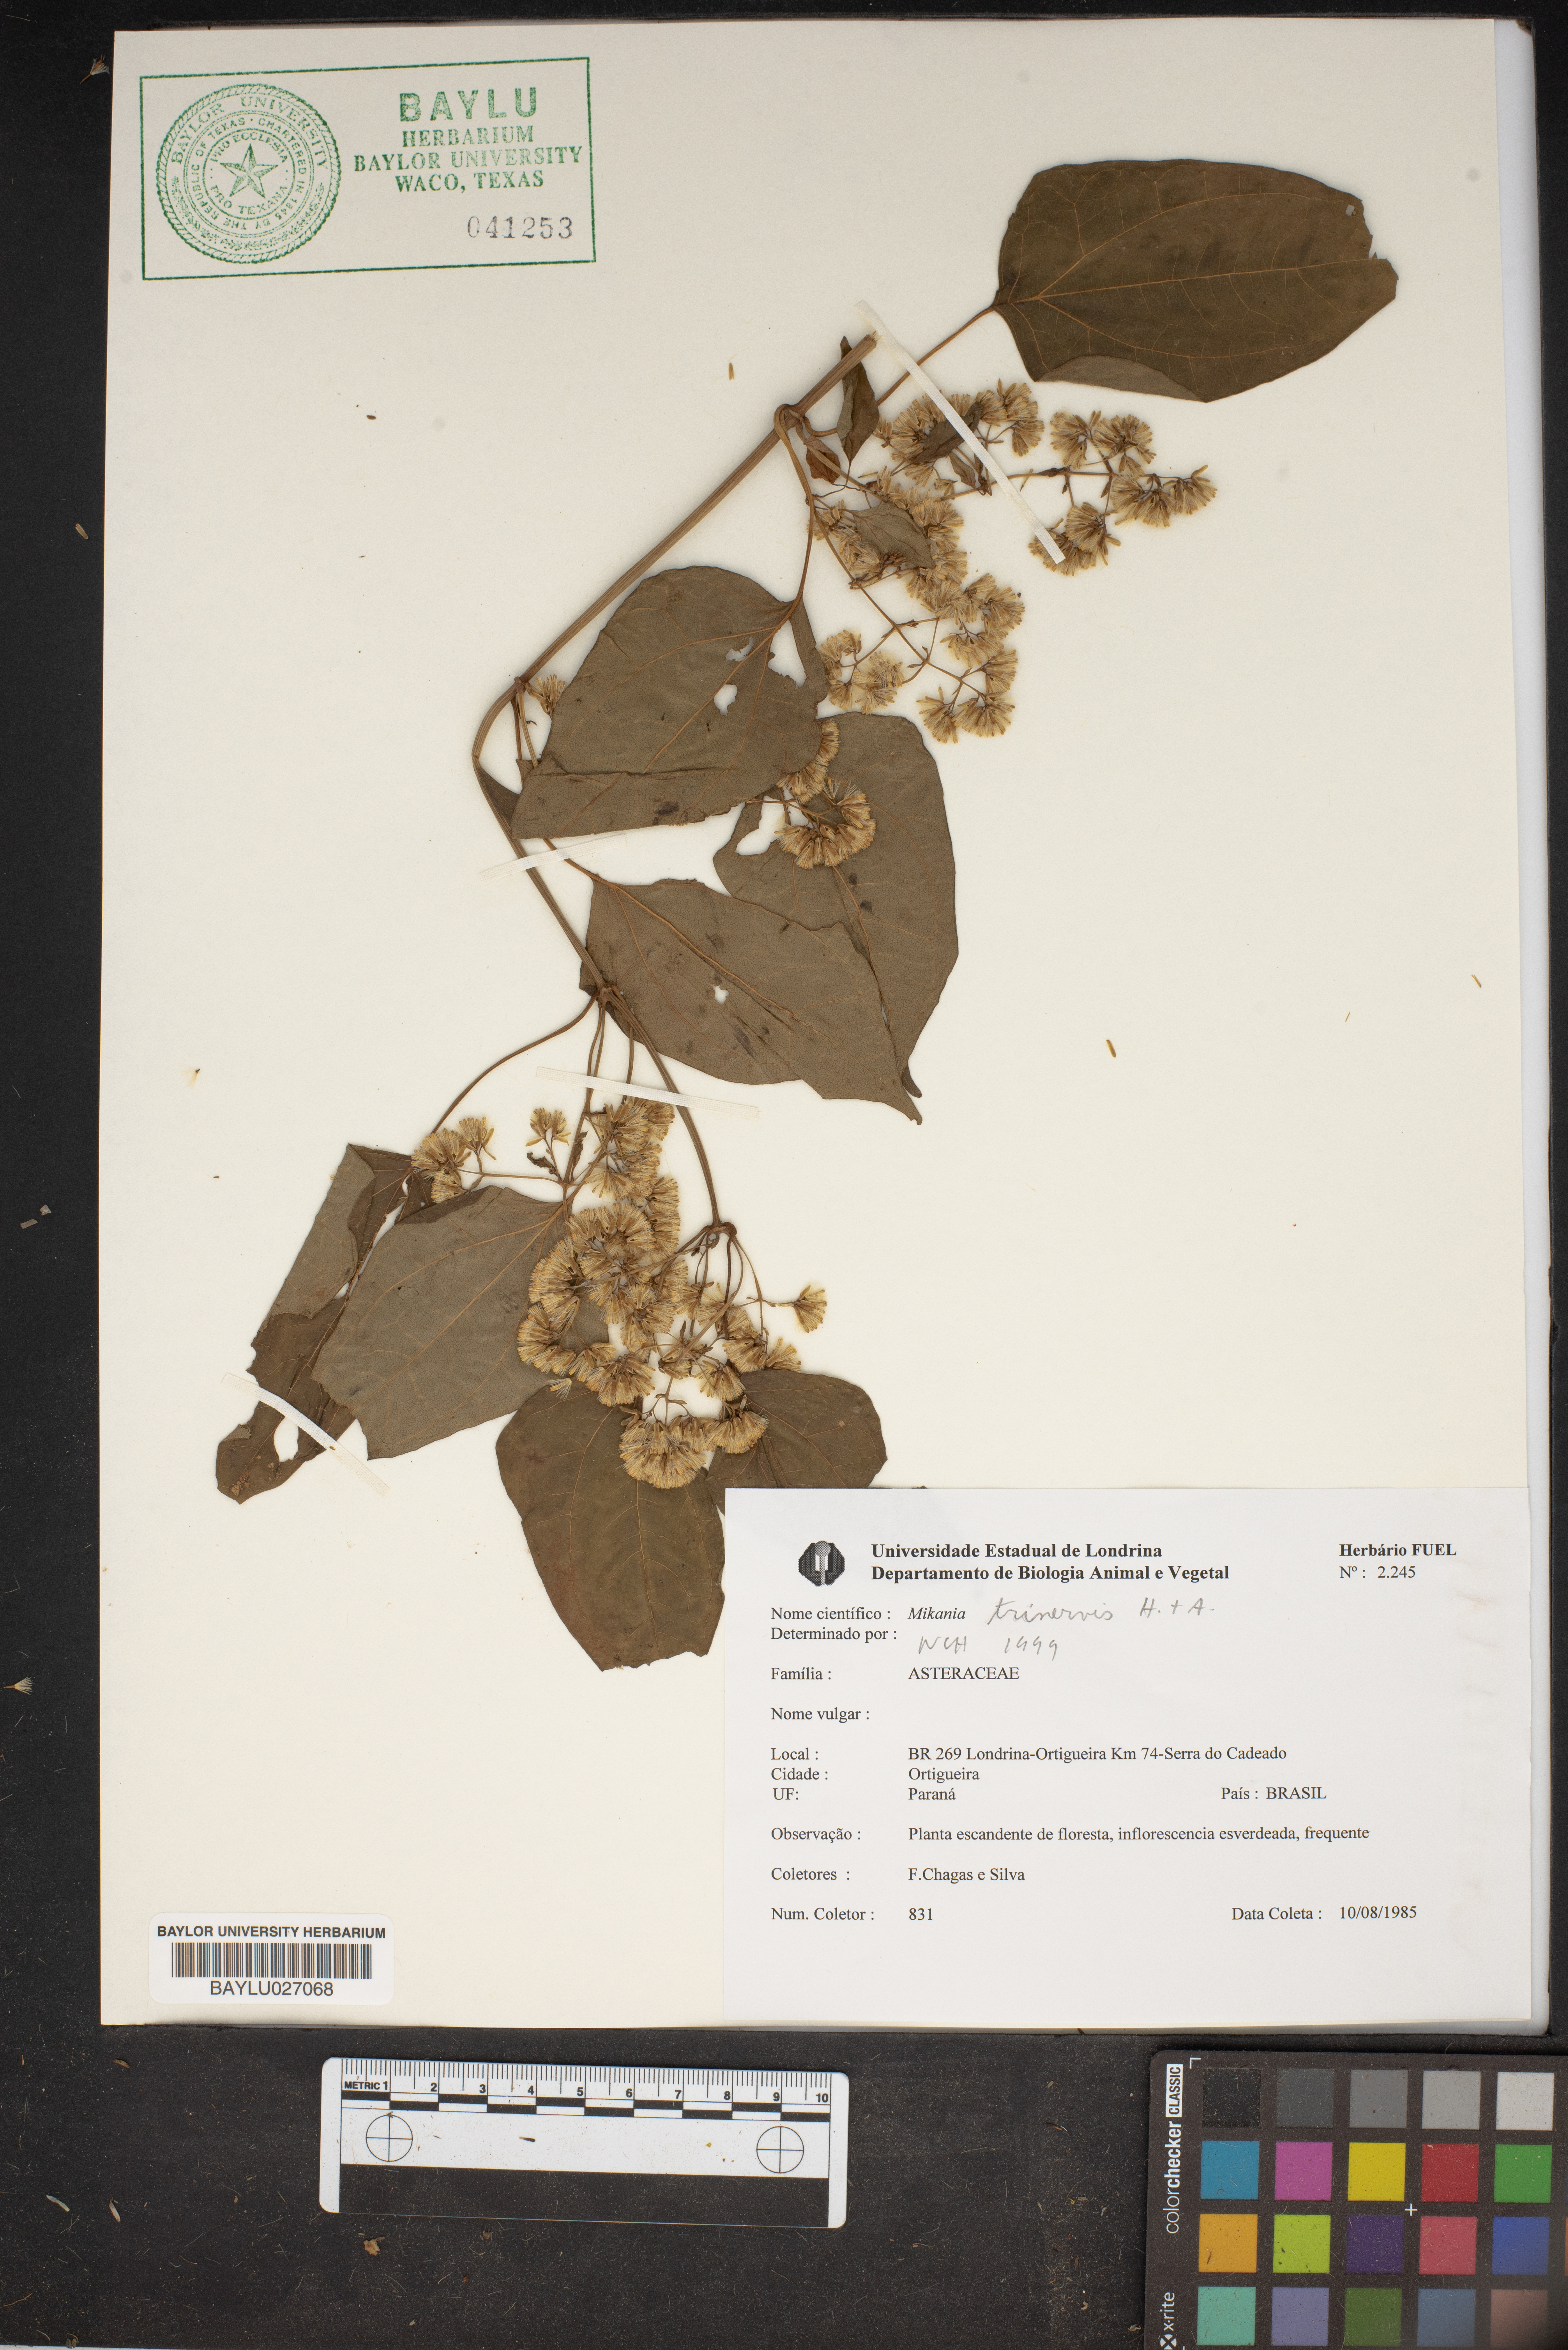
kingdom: Plantae
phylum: Tracheophyta
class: Magnoliopsida
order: Asterales
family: Asteraceae
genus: Mikania
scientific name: Mikania trinervis
